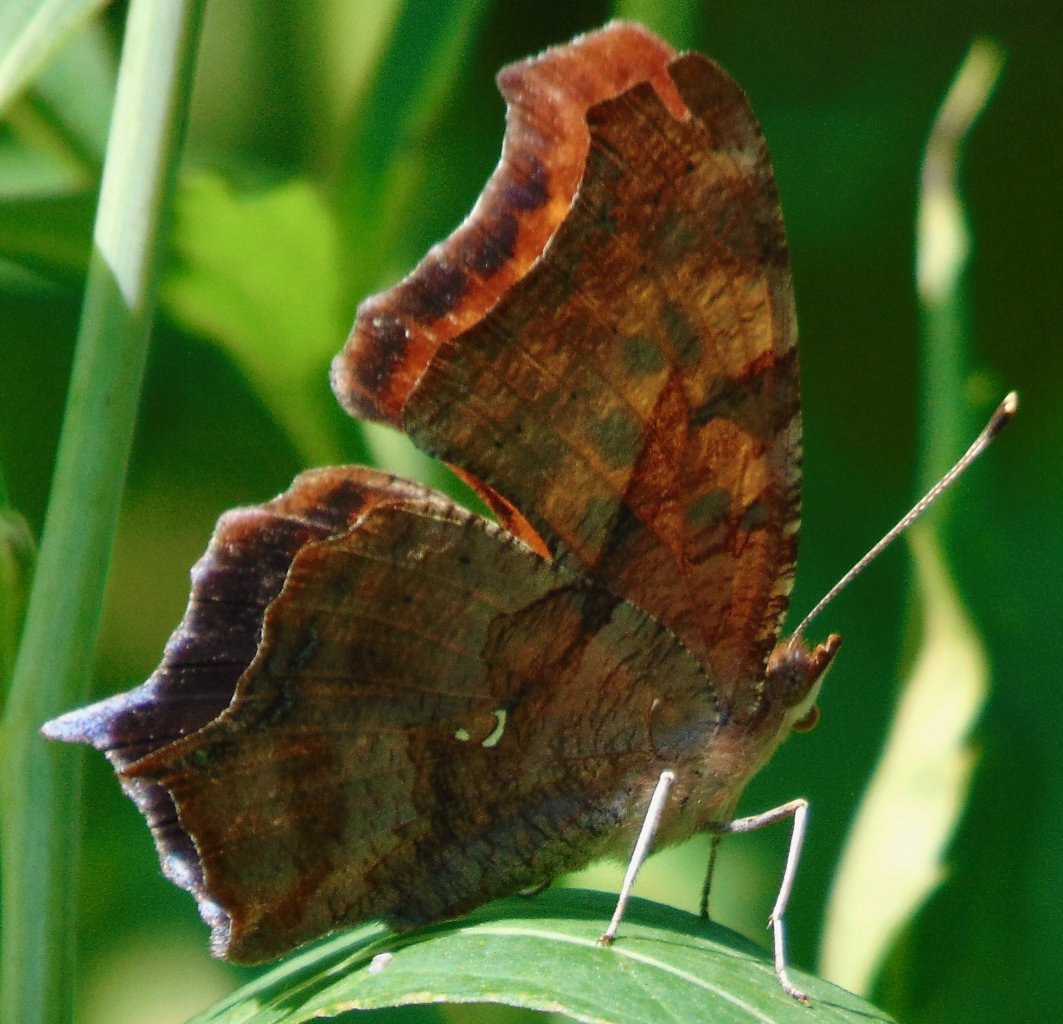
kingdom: Animalia
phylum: Arthropoda
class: Insecta
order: Lepidoptera
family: Nymphalidae
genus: Polygonia
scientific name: Polygonia interrogationis
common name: Question Mark
